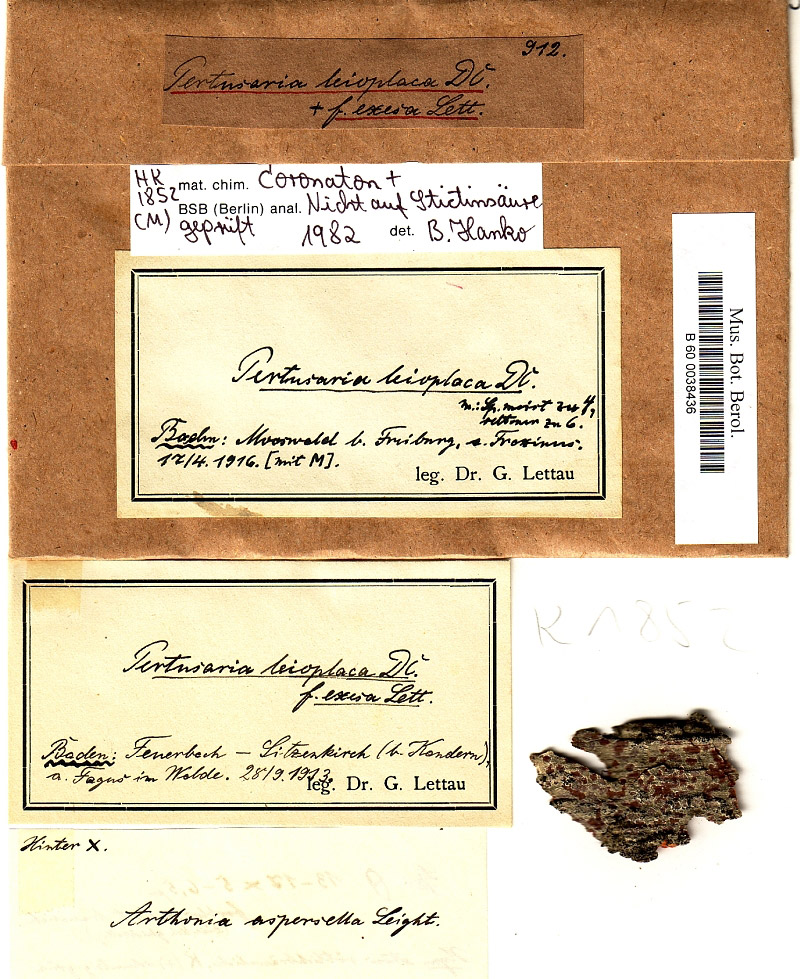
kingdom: Fungi
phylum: Ascomycota
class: Lecanoromycetes
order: Pertusariales
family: Pertusariaceae
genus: Pertusaria
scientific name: Pertusaria leioplaca
